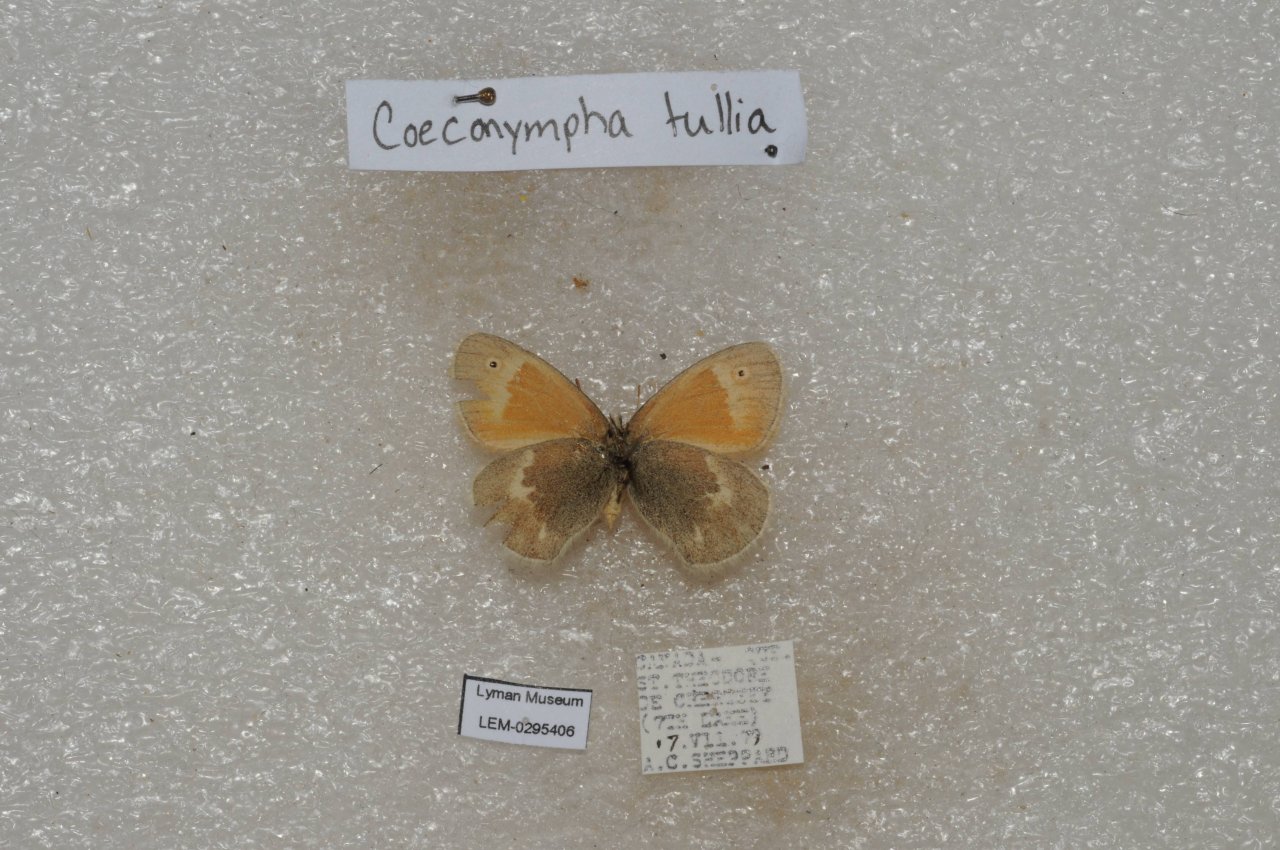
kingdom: Animalia
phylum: Arthropoda
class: Insecta
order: Lepidoptera
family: Nymphalidae
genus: Coenonympha
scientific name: Coenonympha tullia
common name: Large Heath
